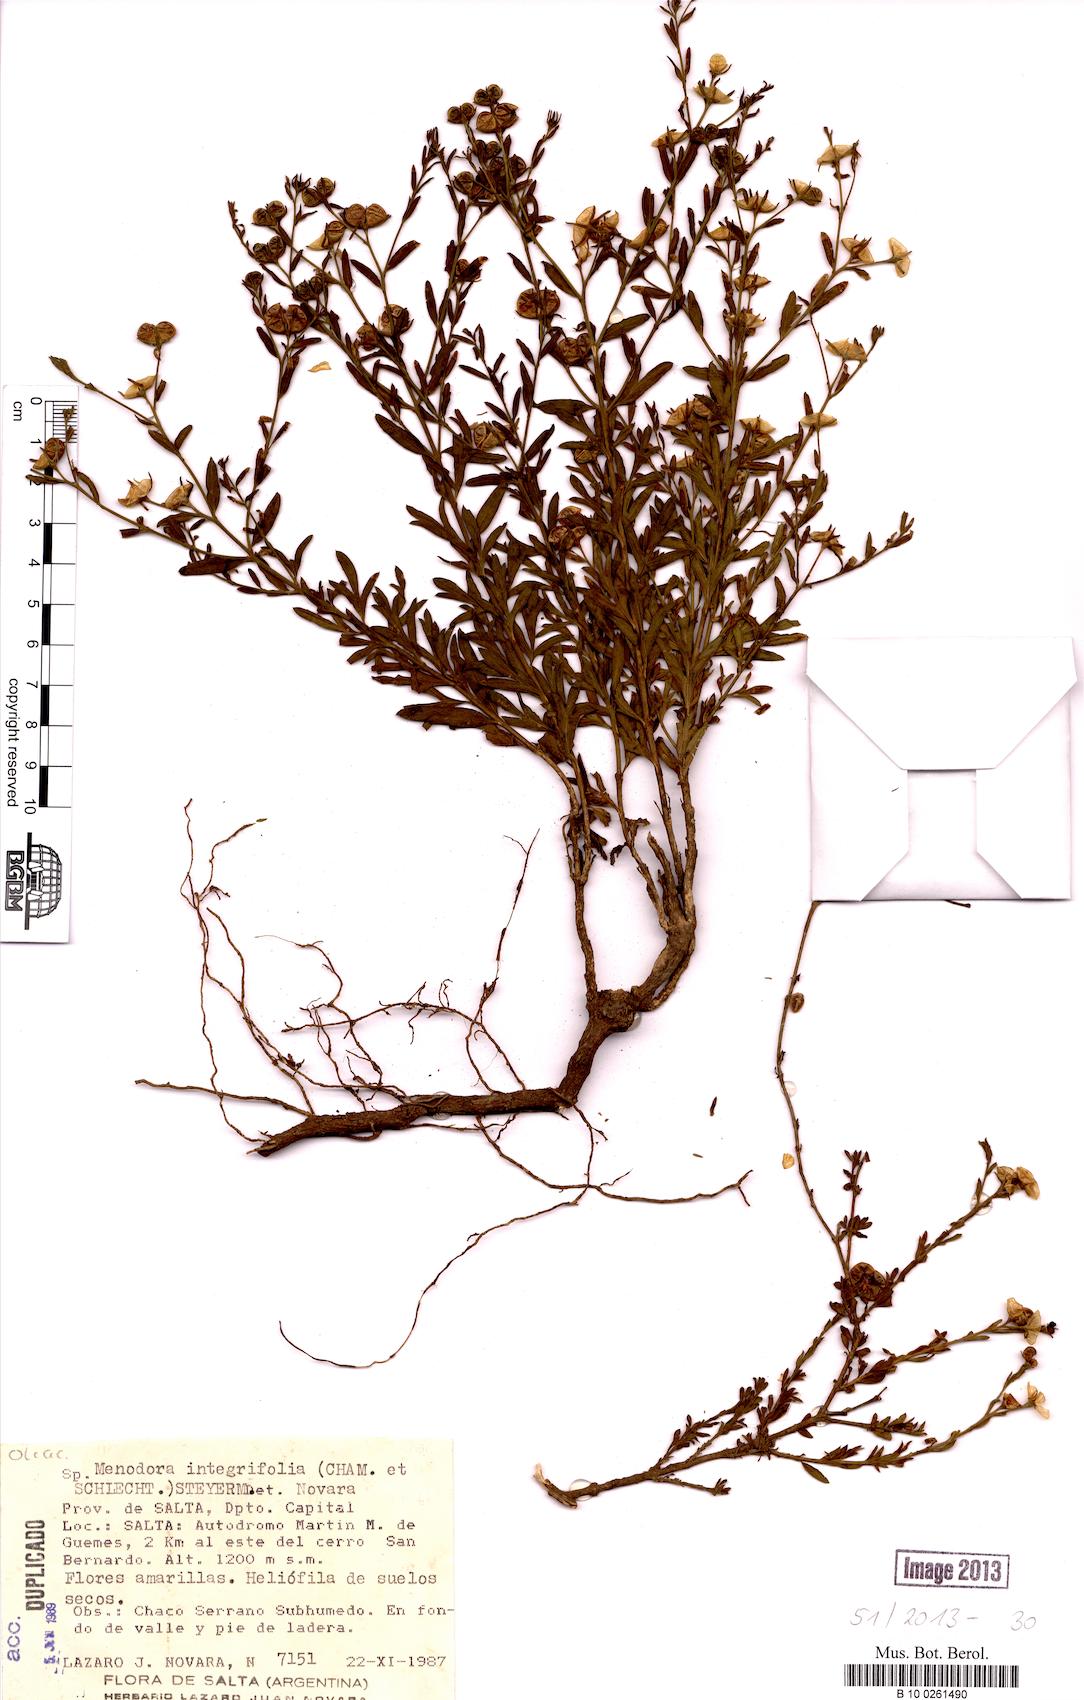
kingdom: Plantae
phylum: Tracheophyta
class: Magnoliopsida
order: Lamiales
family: Oleaceae
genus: Menodora
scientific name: Menodora integrifolia
